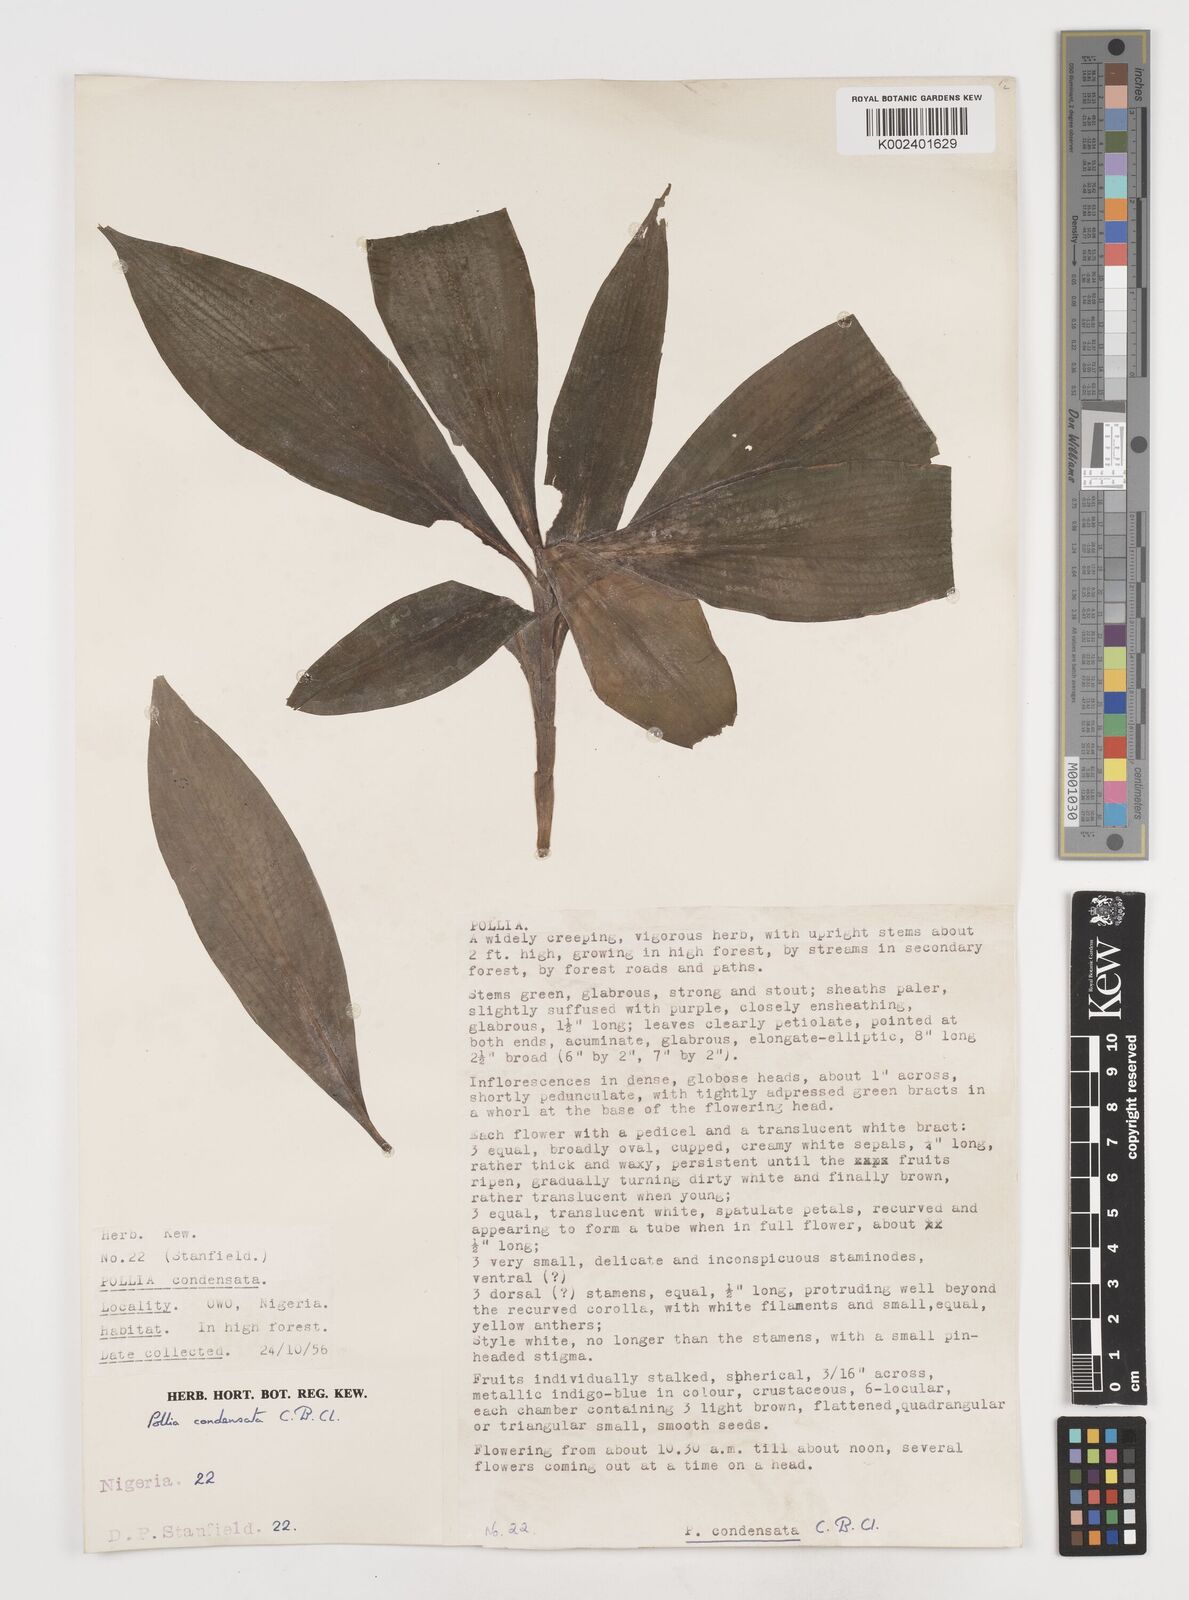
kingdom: Plantae
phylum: Tracheophyta
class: Liliopsida
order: Commelinales
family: Commelinaceae
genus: Pollia
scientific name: Pollia condensata
